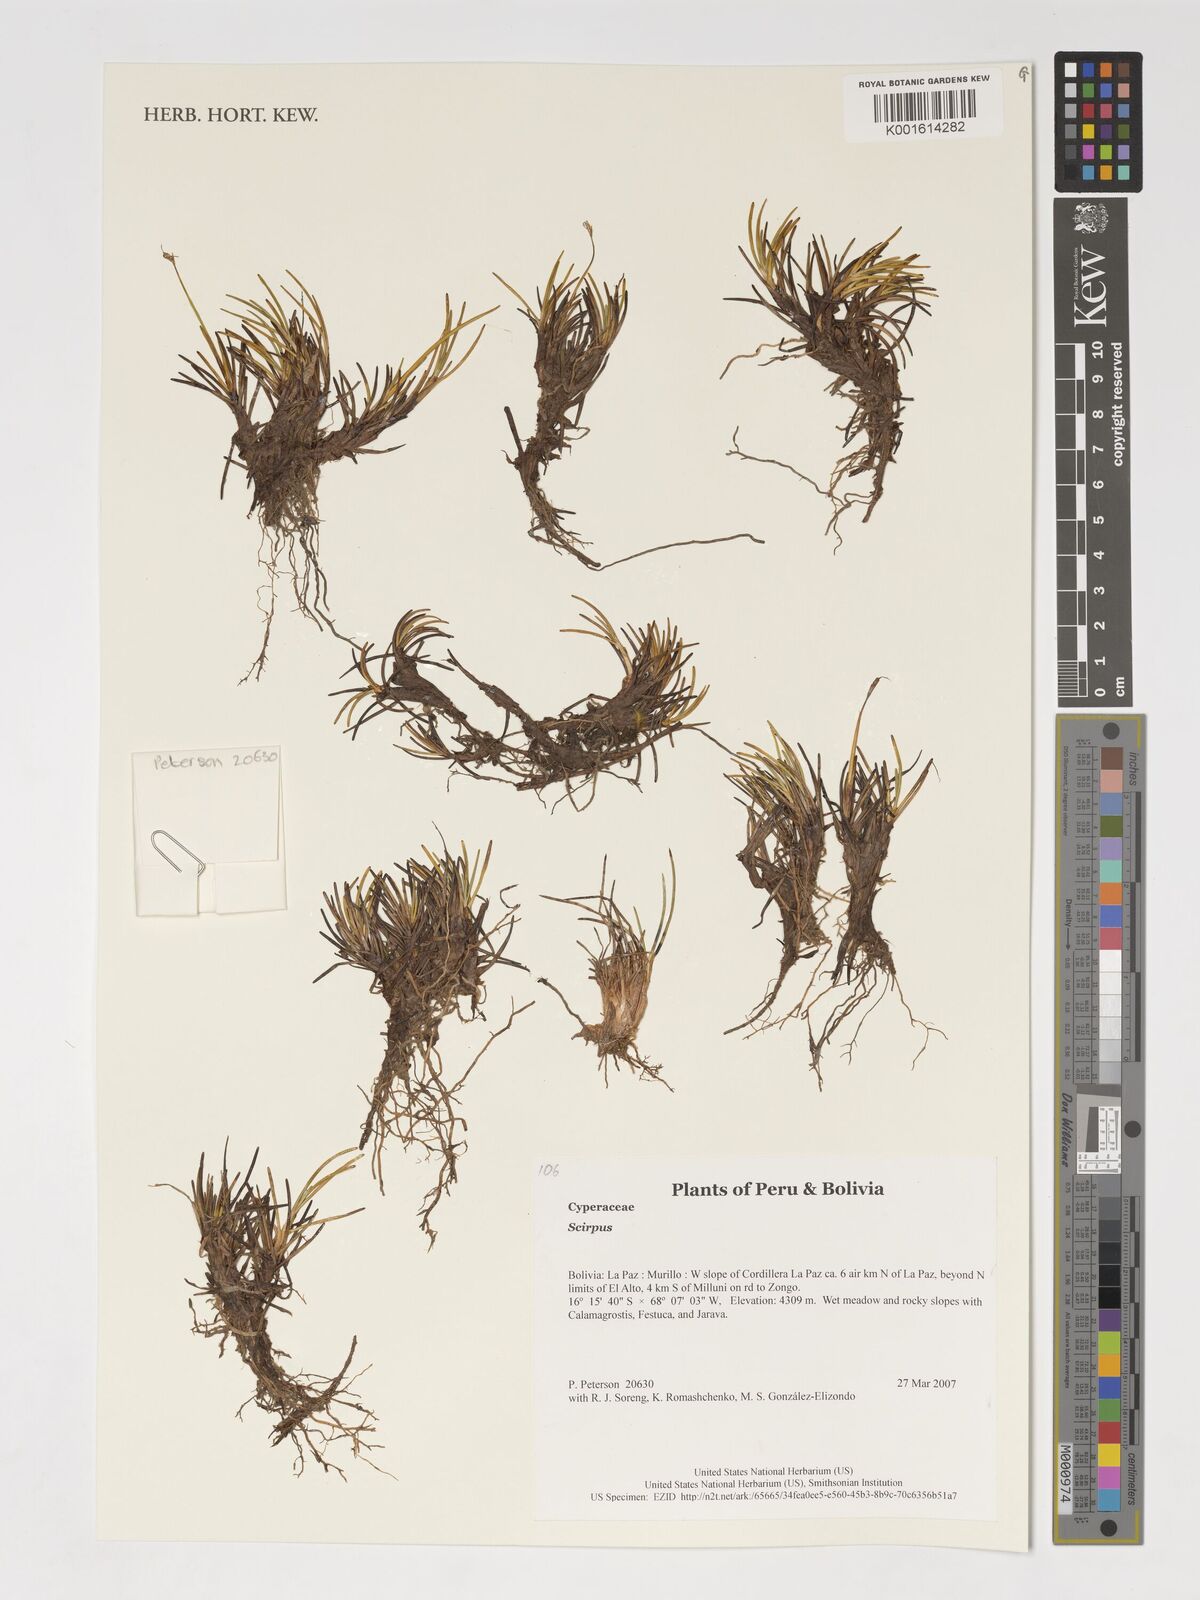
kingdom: Plantae
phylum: Tracheophyta
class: Liliopsida
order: Poales
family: Cyperaceae
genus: Scirpus
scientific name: Scirpus
